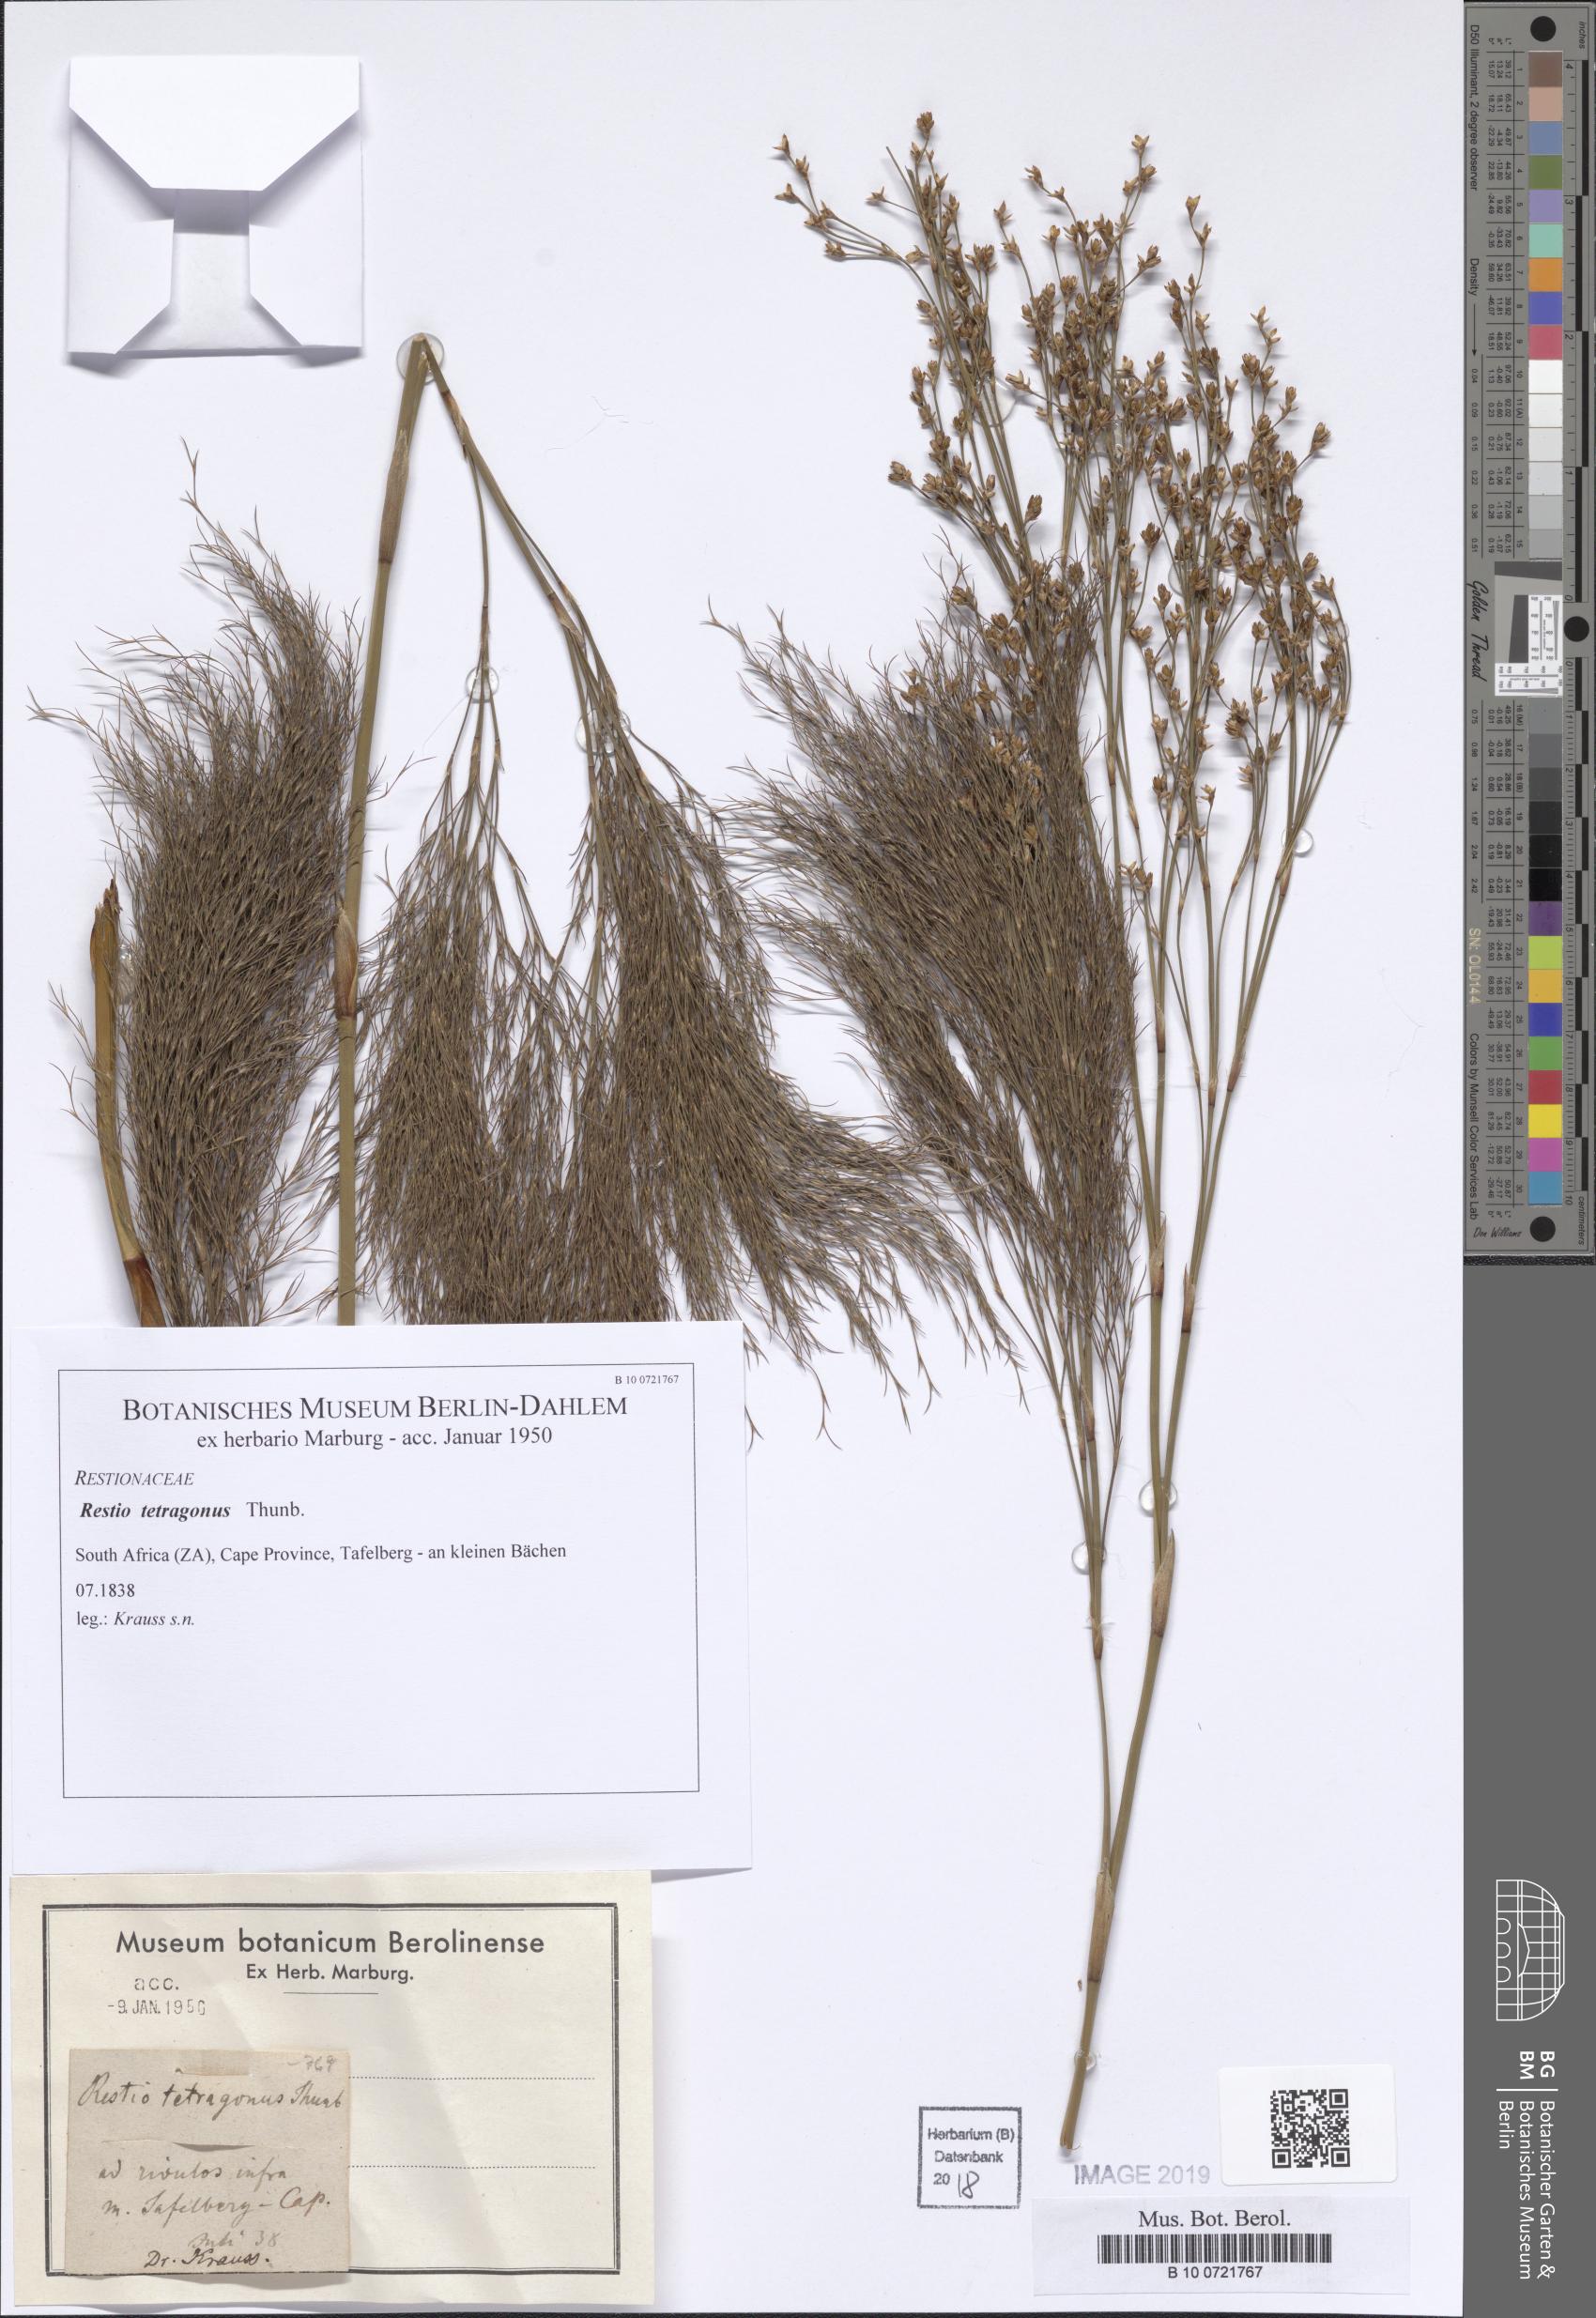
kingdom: Plantae
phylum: Tracheophyta
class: Liliopsida
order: Poales
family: Restionaceae
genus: Restio
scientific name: Restio tetragonus
